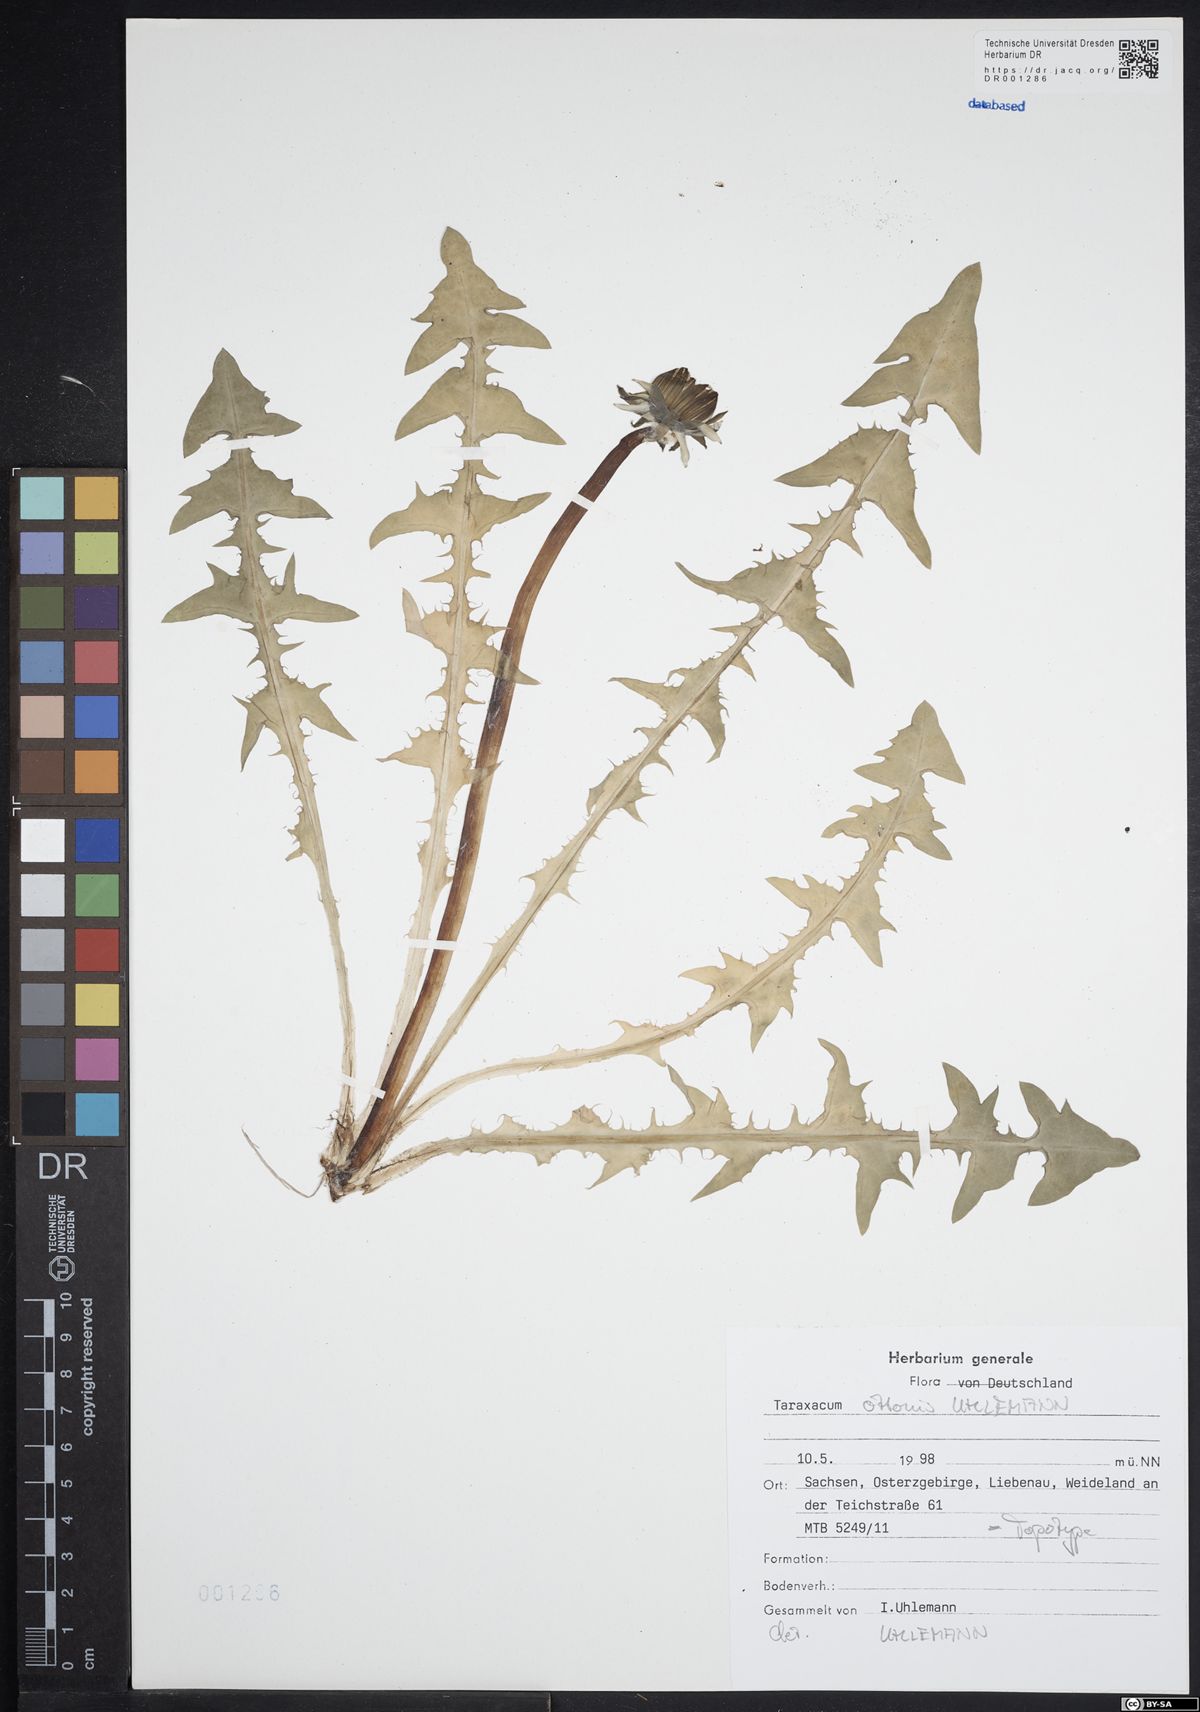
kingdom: Plantae
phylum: Tracheophyta
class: Magnoliopsida
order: Asterales
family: Asteraceae
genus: Taraxacum
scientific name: Taraxacum ottonis
